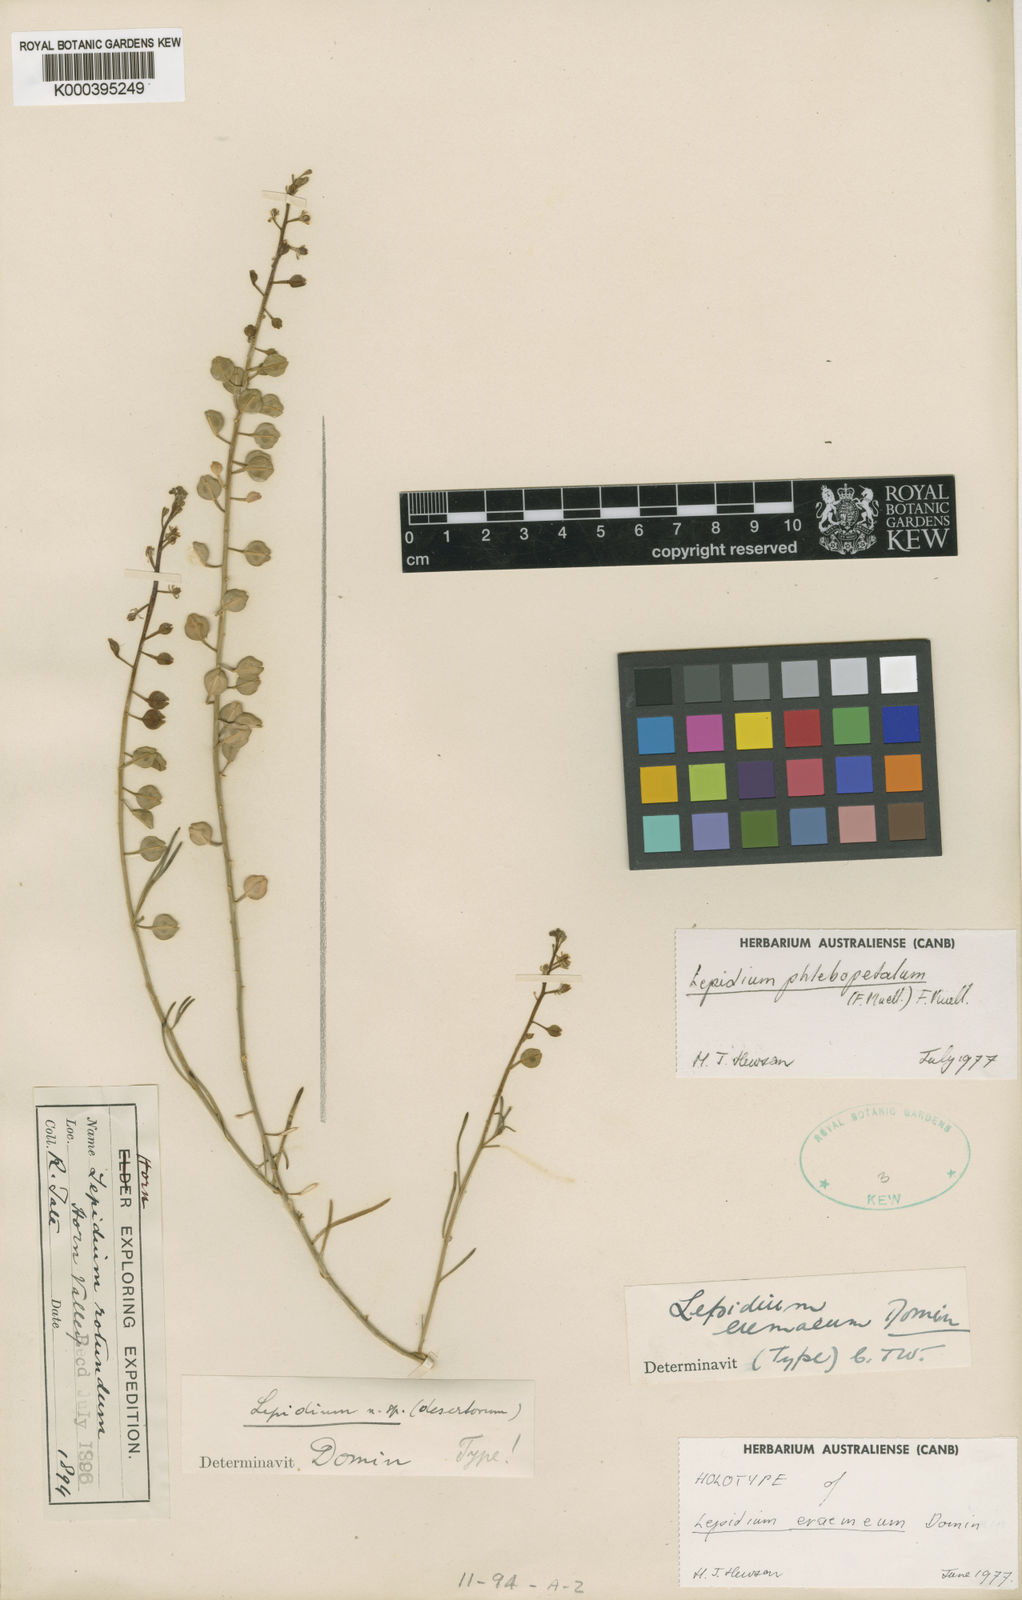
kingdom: Plantae
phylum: Tracheophyta
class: Magnoliopsida
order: Brassicales
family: Brassicaceae
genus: Lepidium
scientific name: Lepidium phlebopetalum
